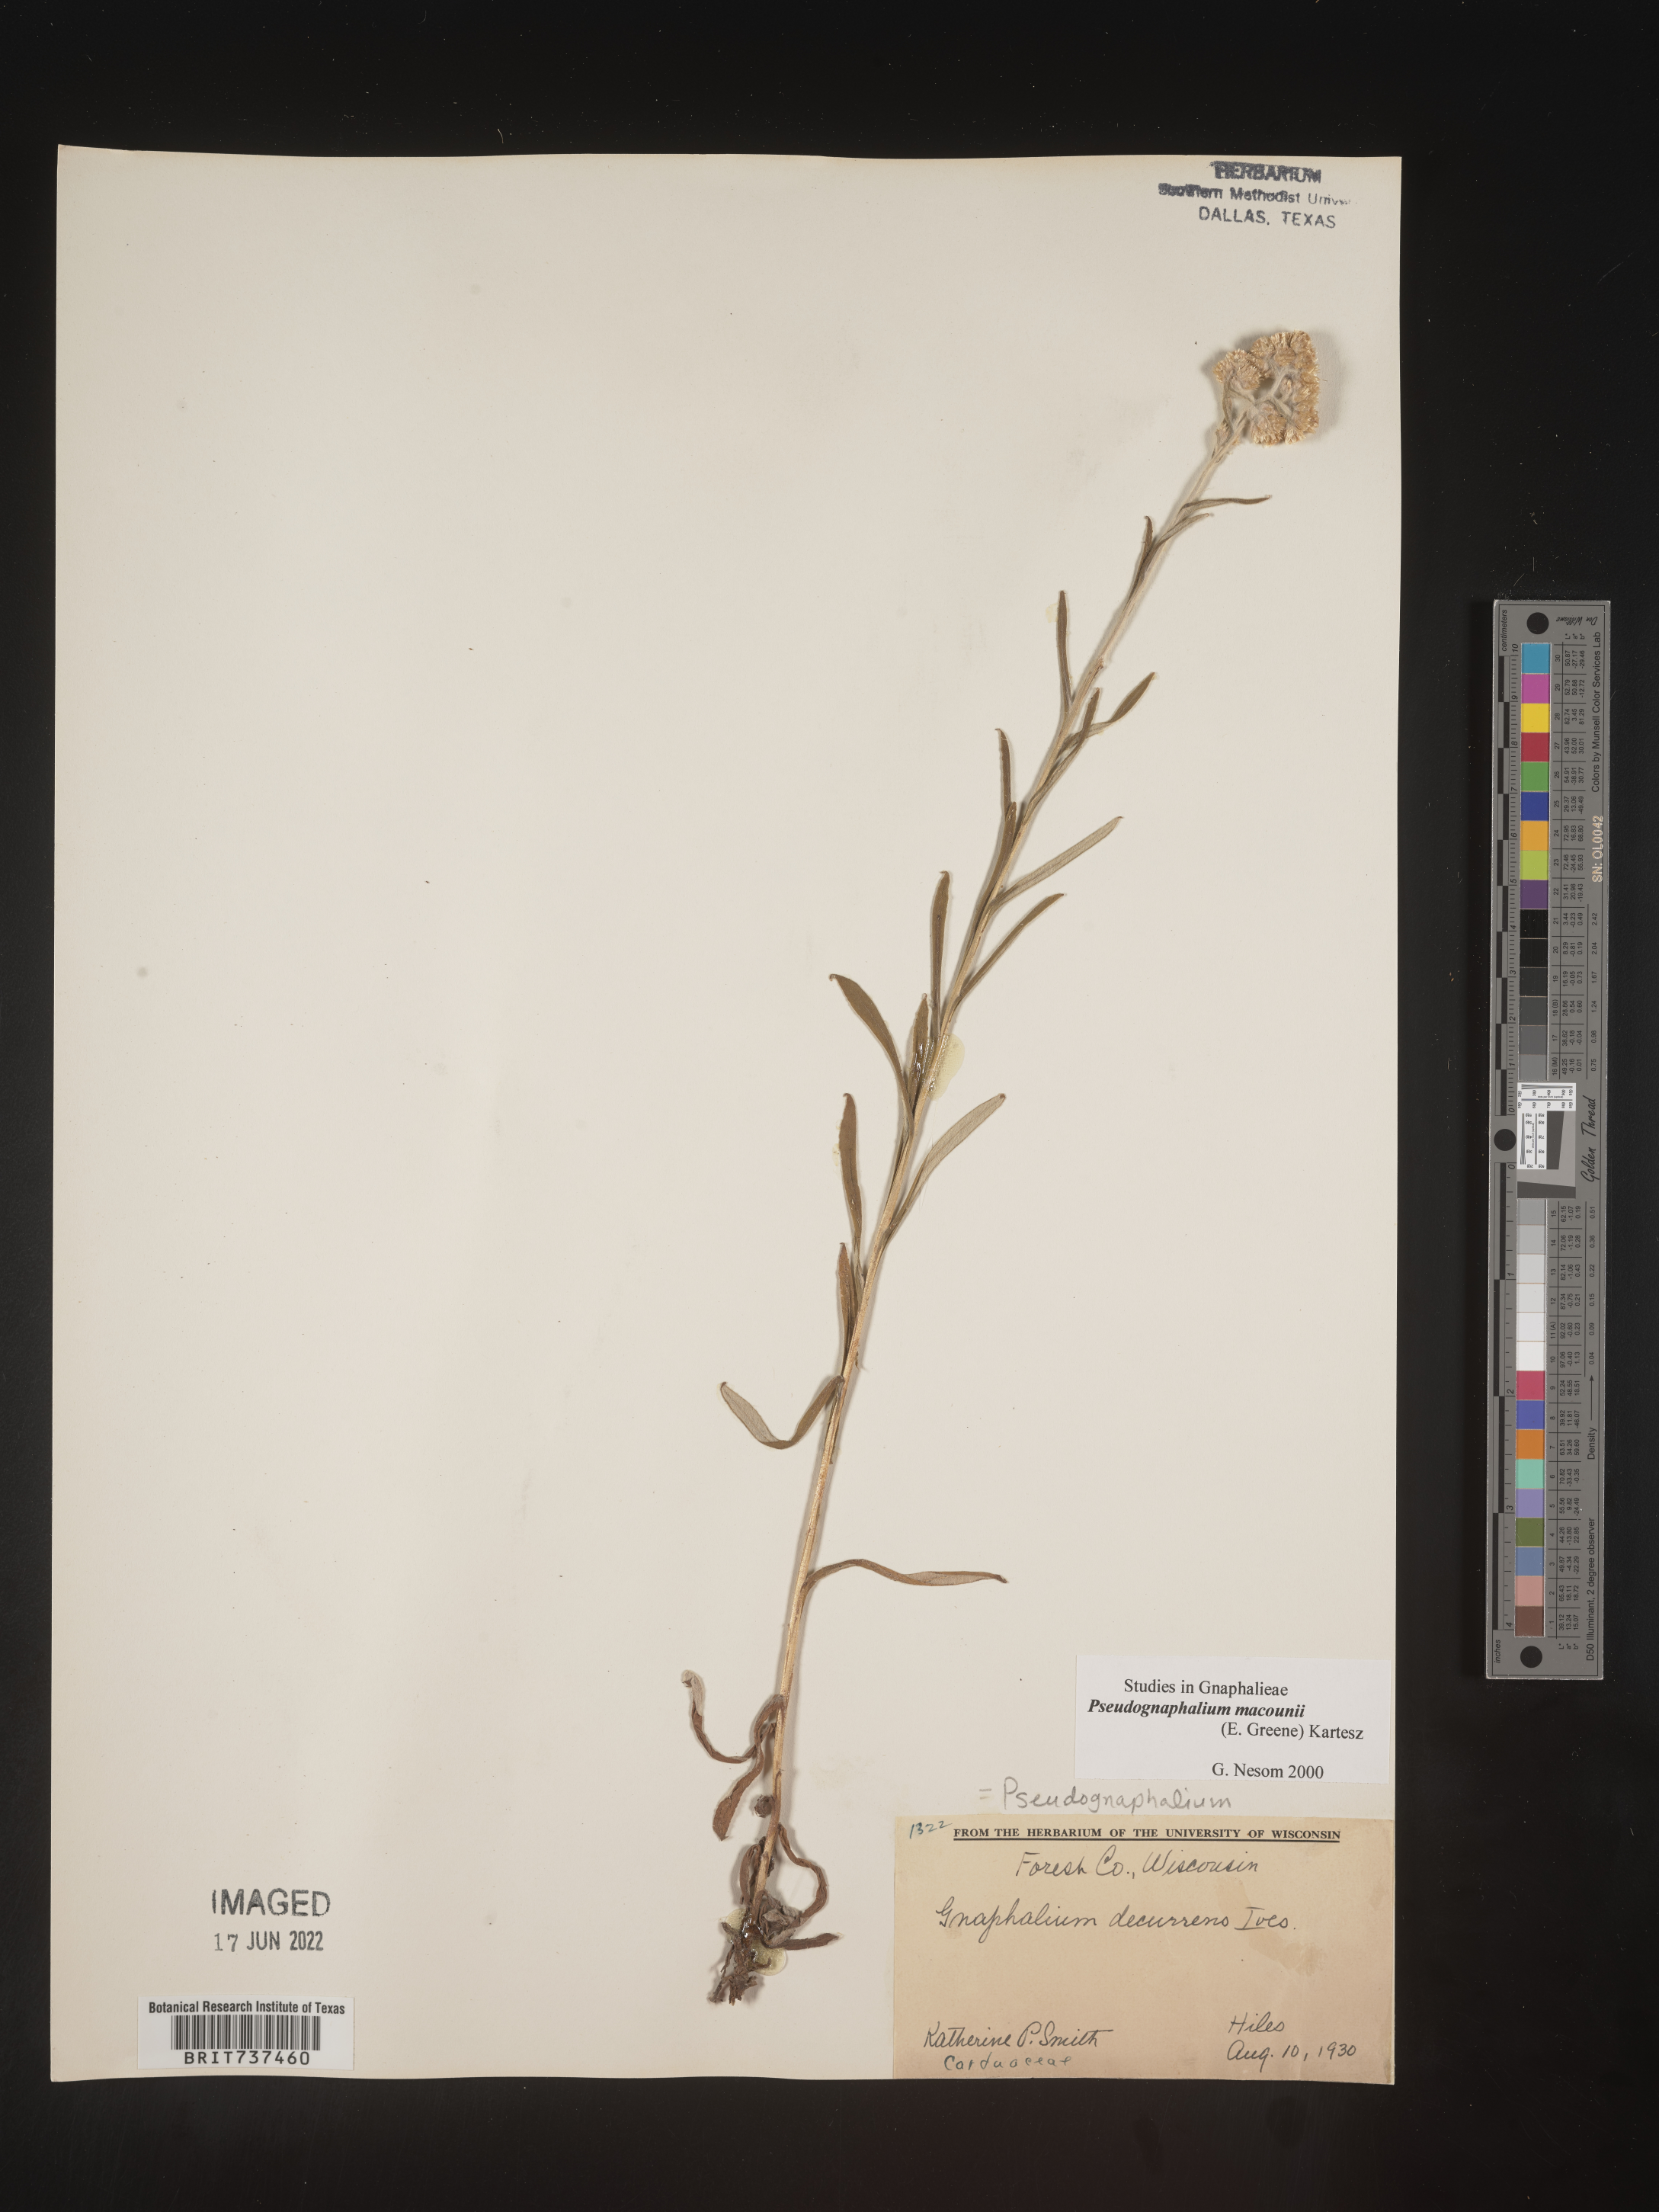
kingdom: Plantae
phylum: Tracheophyta
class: Magnoliopsida
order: Asterales
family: Asteraceae
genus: Pseudognaphalium
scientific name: Pseudognaphalium macounii
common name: Clammy cudweed
